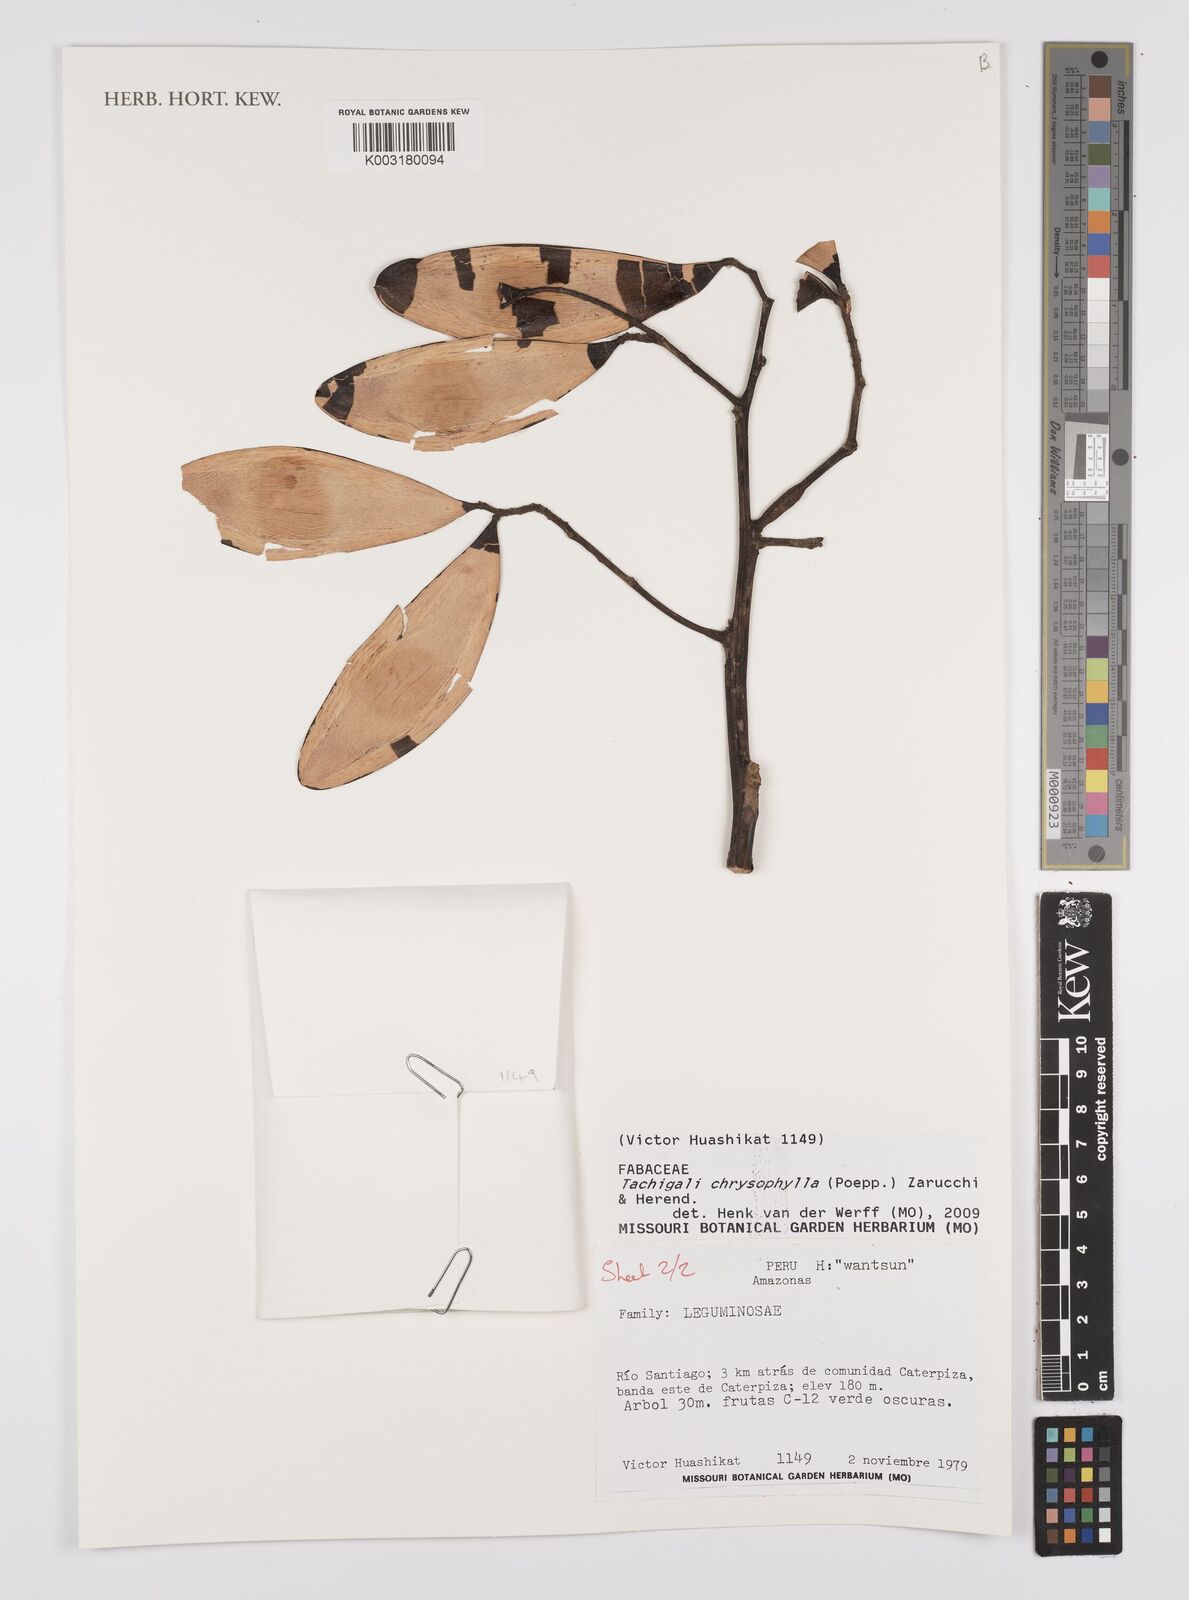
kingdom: Plantae
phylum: Tracheophyta
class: Magnoliopsida
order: Fabales
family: Fabaceae
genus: Tachigali
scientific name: Tachigali chrysophylla
